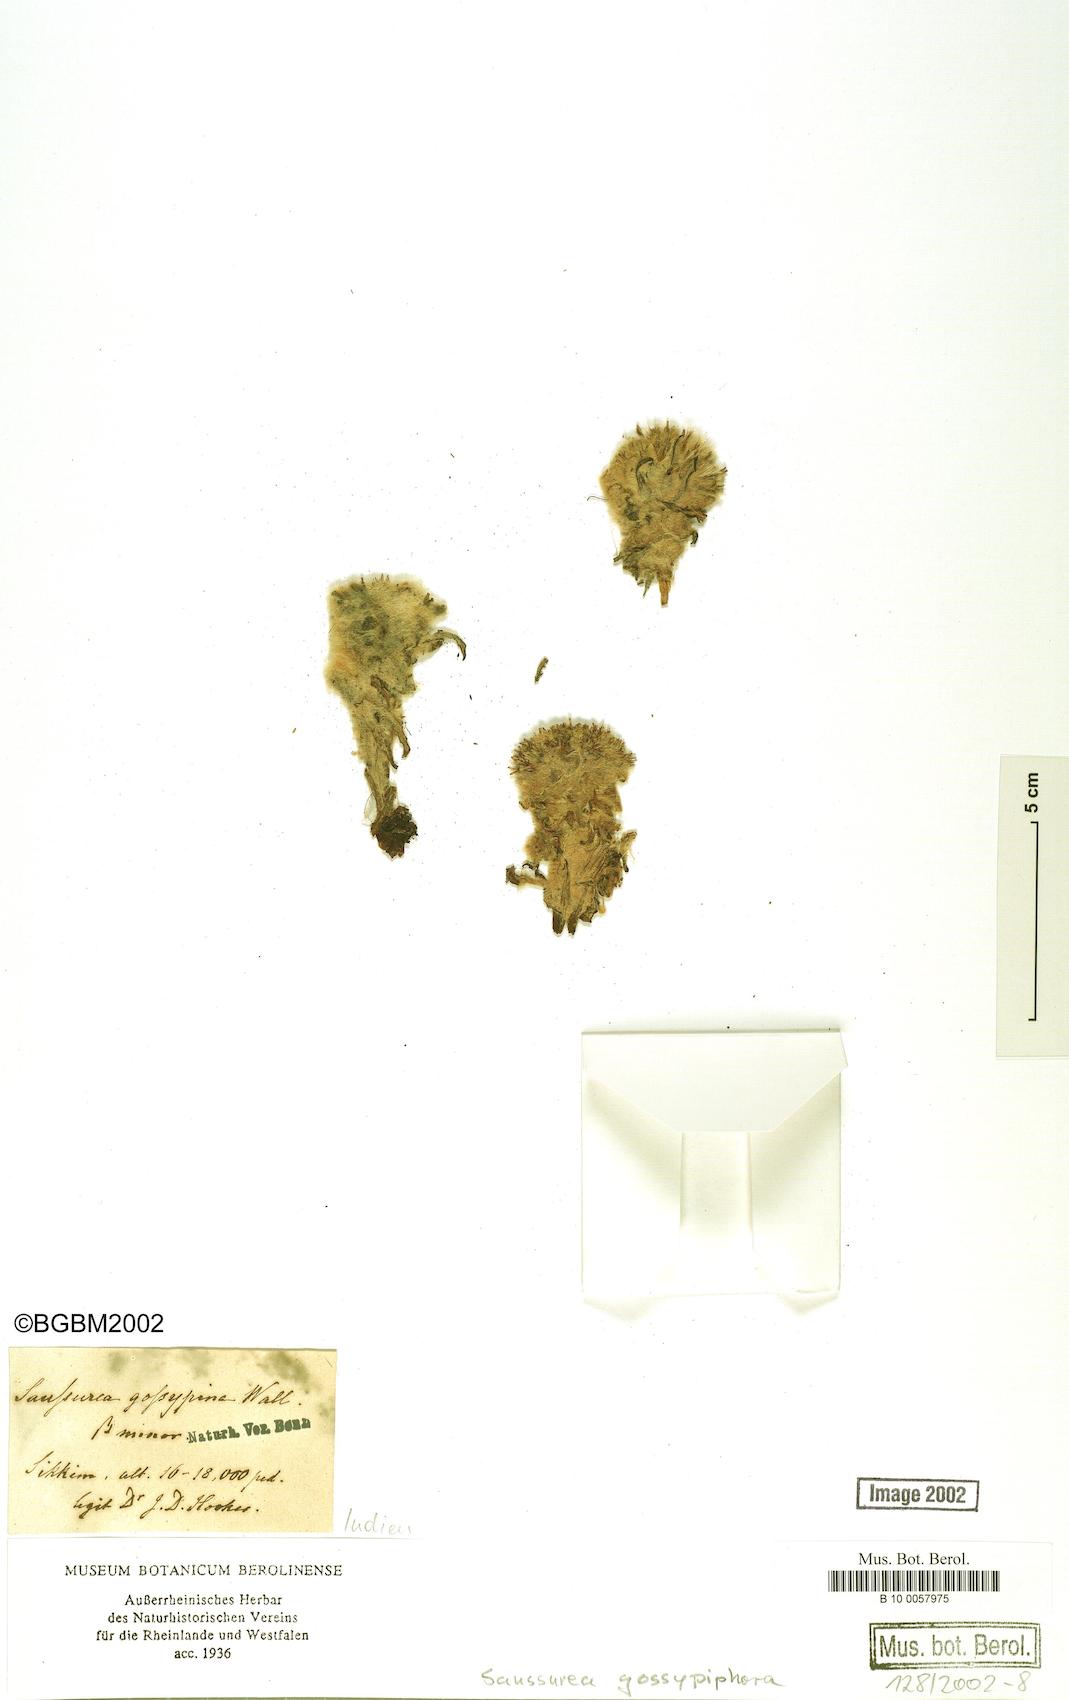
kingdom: Plantae
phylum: Tracheophyta
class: Magnoliopsida
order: Asterales
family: Asteraceae
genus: Saussurea
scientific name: Saussurea gossypiphora
